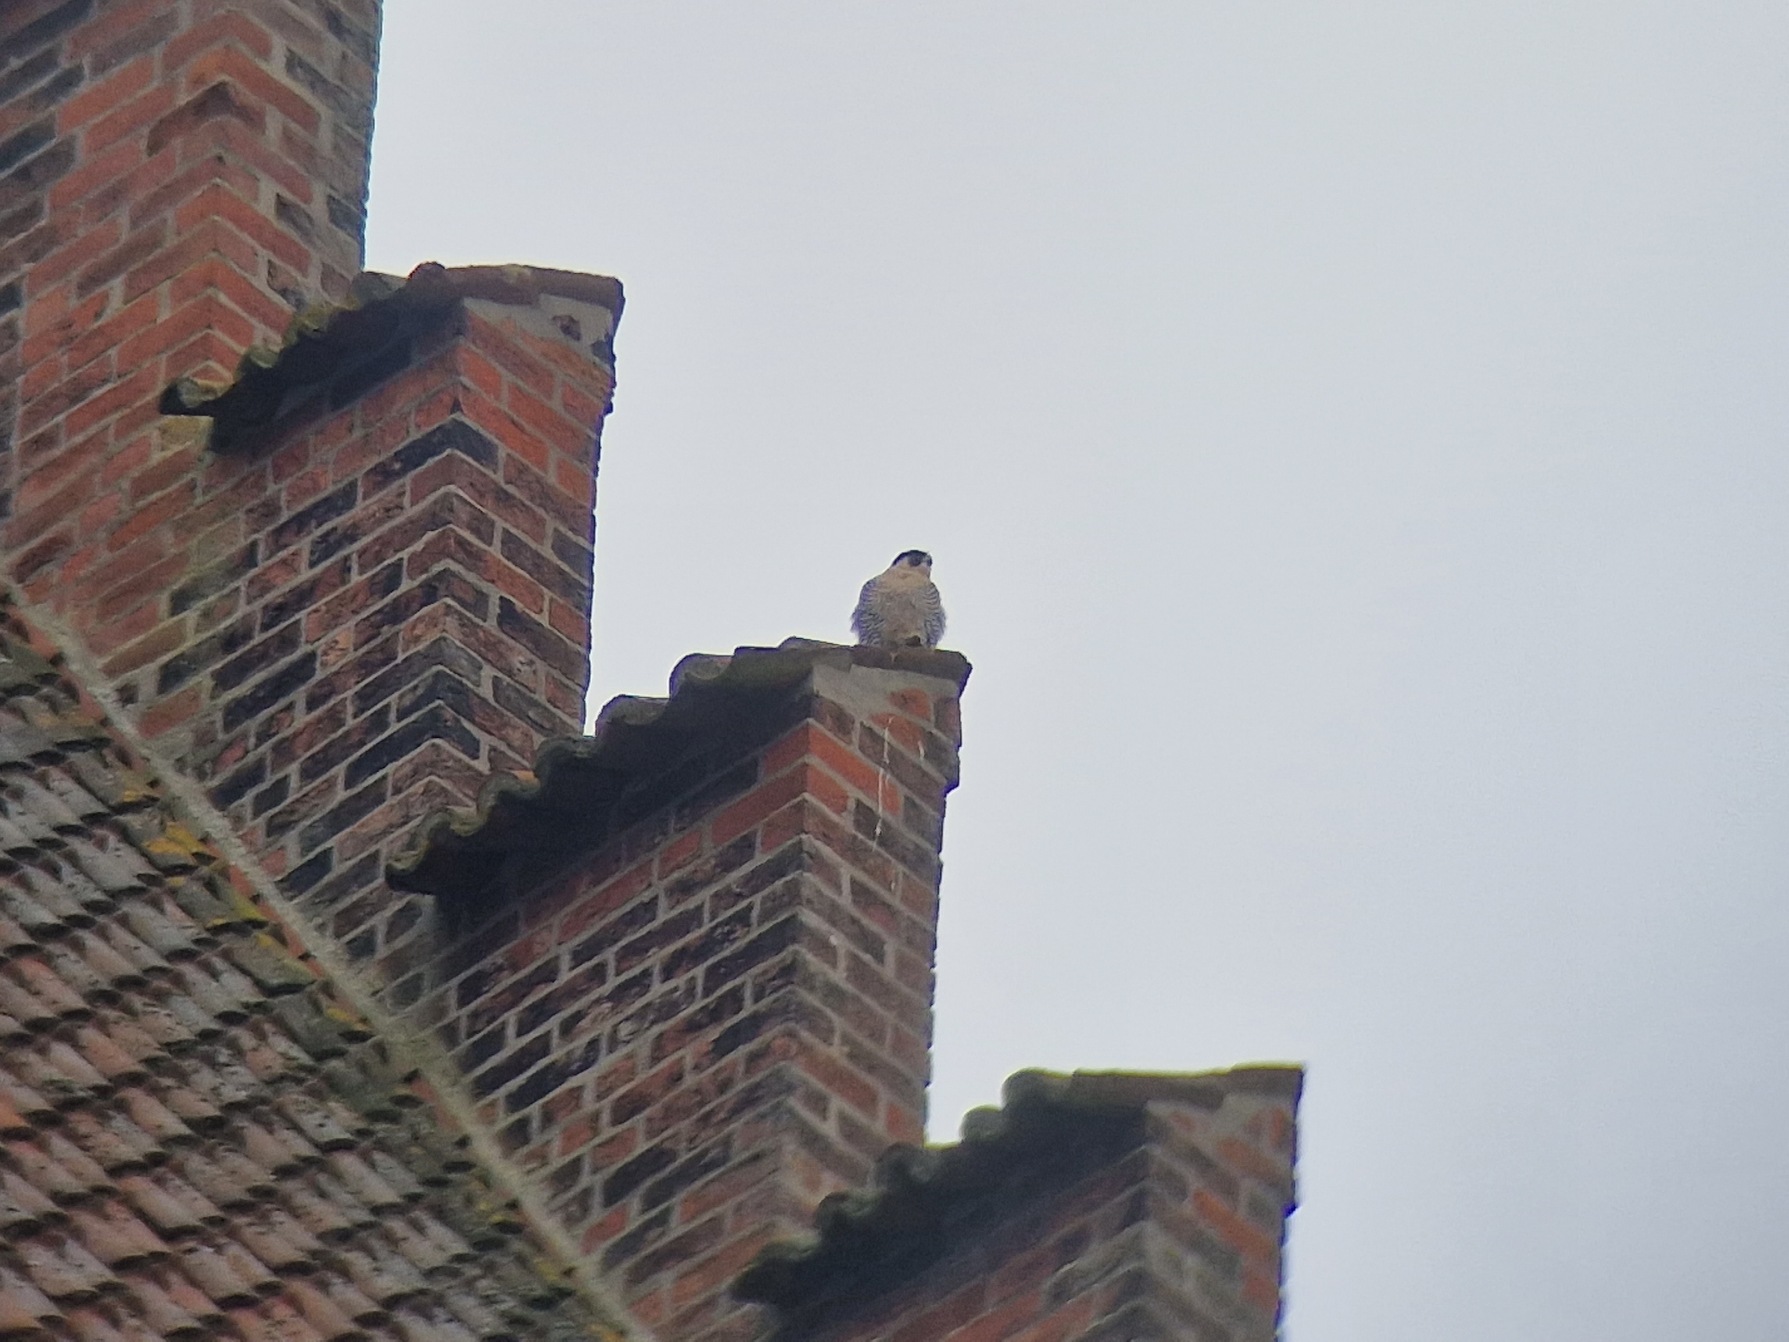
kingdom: Animalia
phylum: Chordata
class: Aves
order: Falconiformes
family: Falconidae
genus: Falco
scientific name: Falco peregrinus
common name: Vandrefalk
